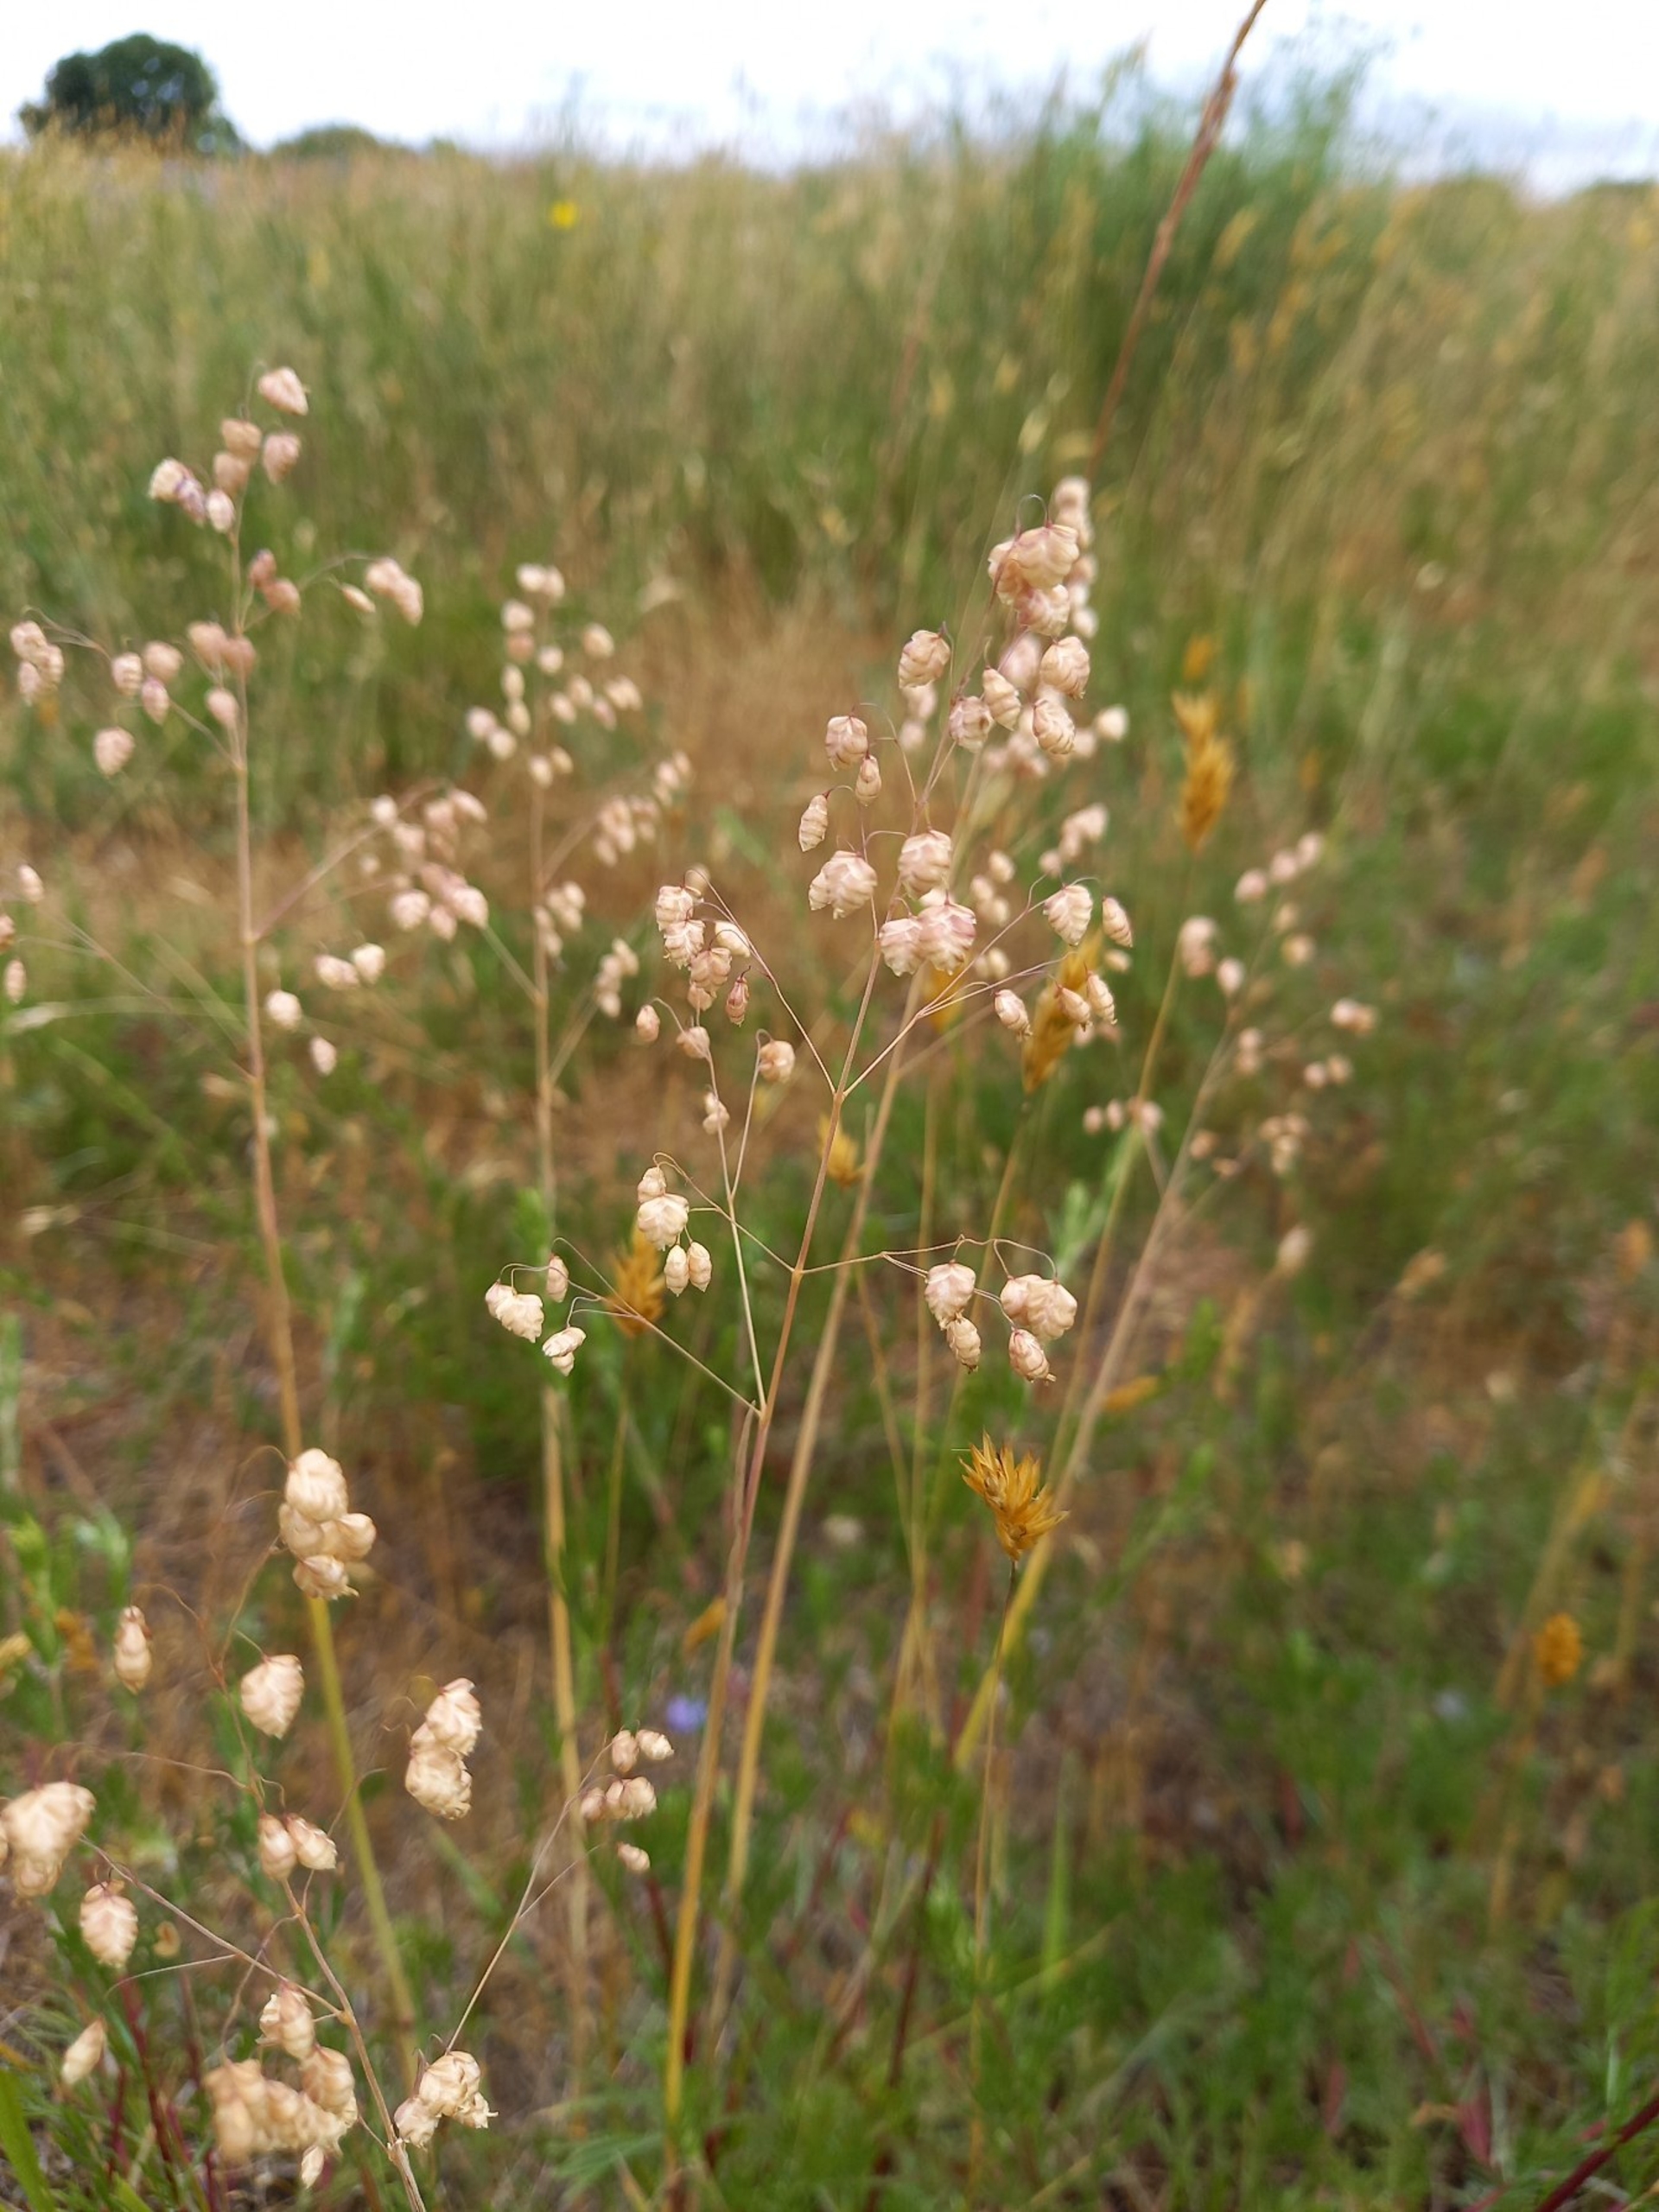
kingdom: Plantae
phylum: Tracheophyta
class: Liliopsida
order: Poales
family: Poaceae
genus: Briza
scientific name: Briza media
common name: Hjertegræs
